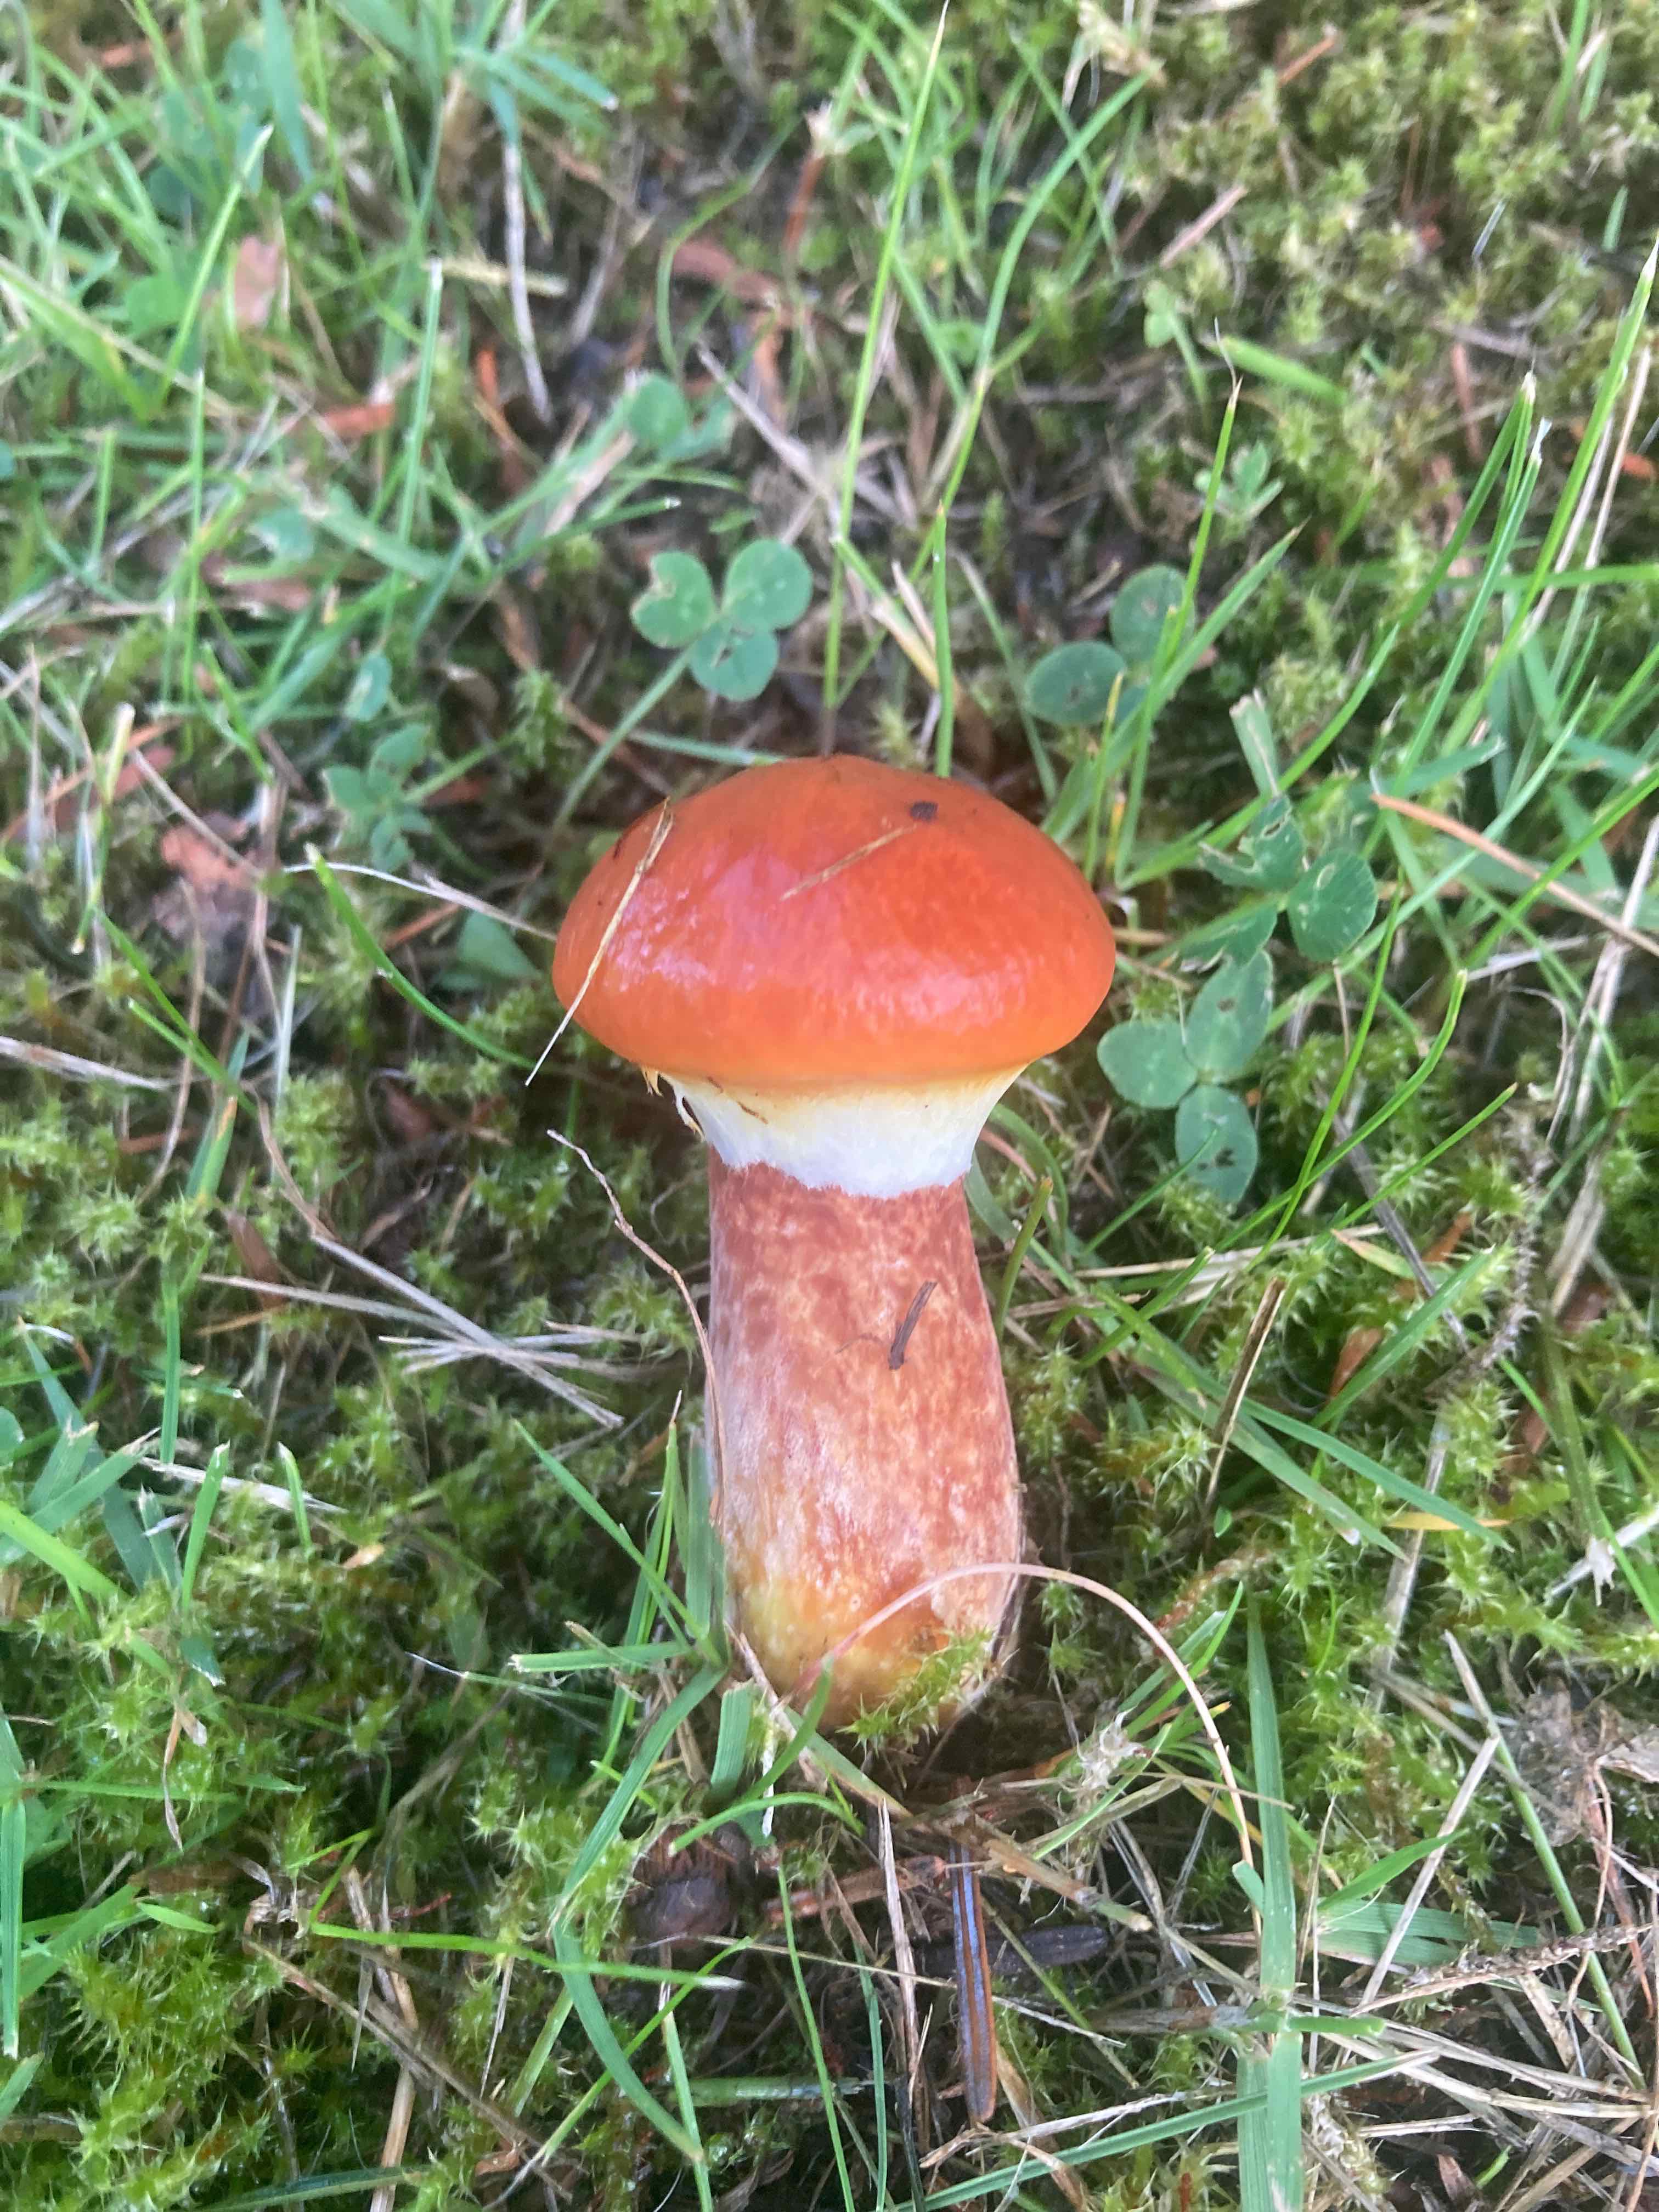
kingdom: Fungi
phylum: Basidiomycota
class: Agaricomycetes
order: Boletales
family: Suillaceae
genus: Suillus
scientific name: Suillus grevillei
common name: lærke-slimrørhat
